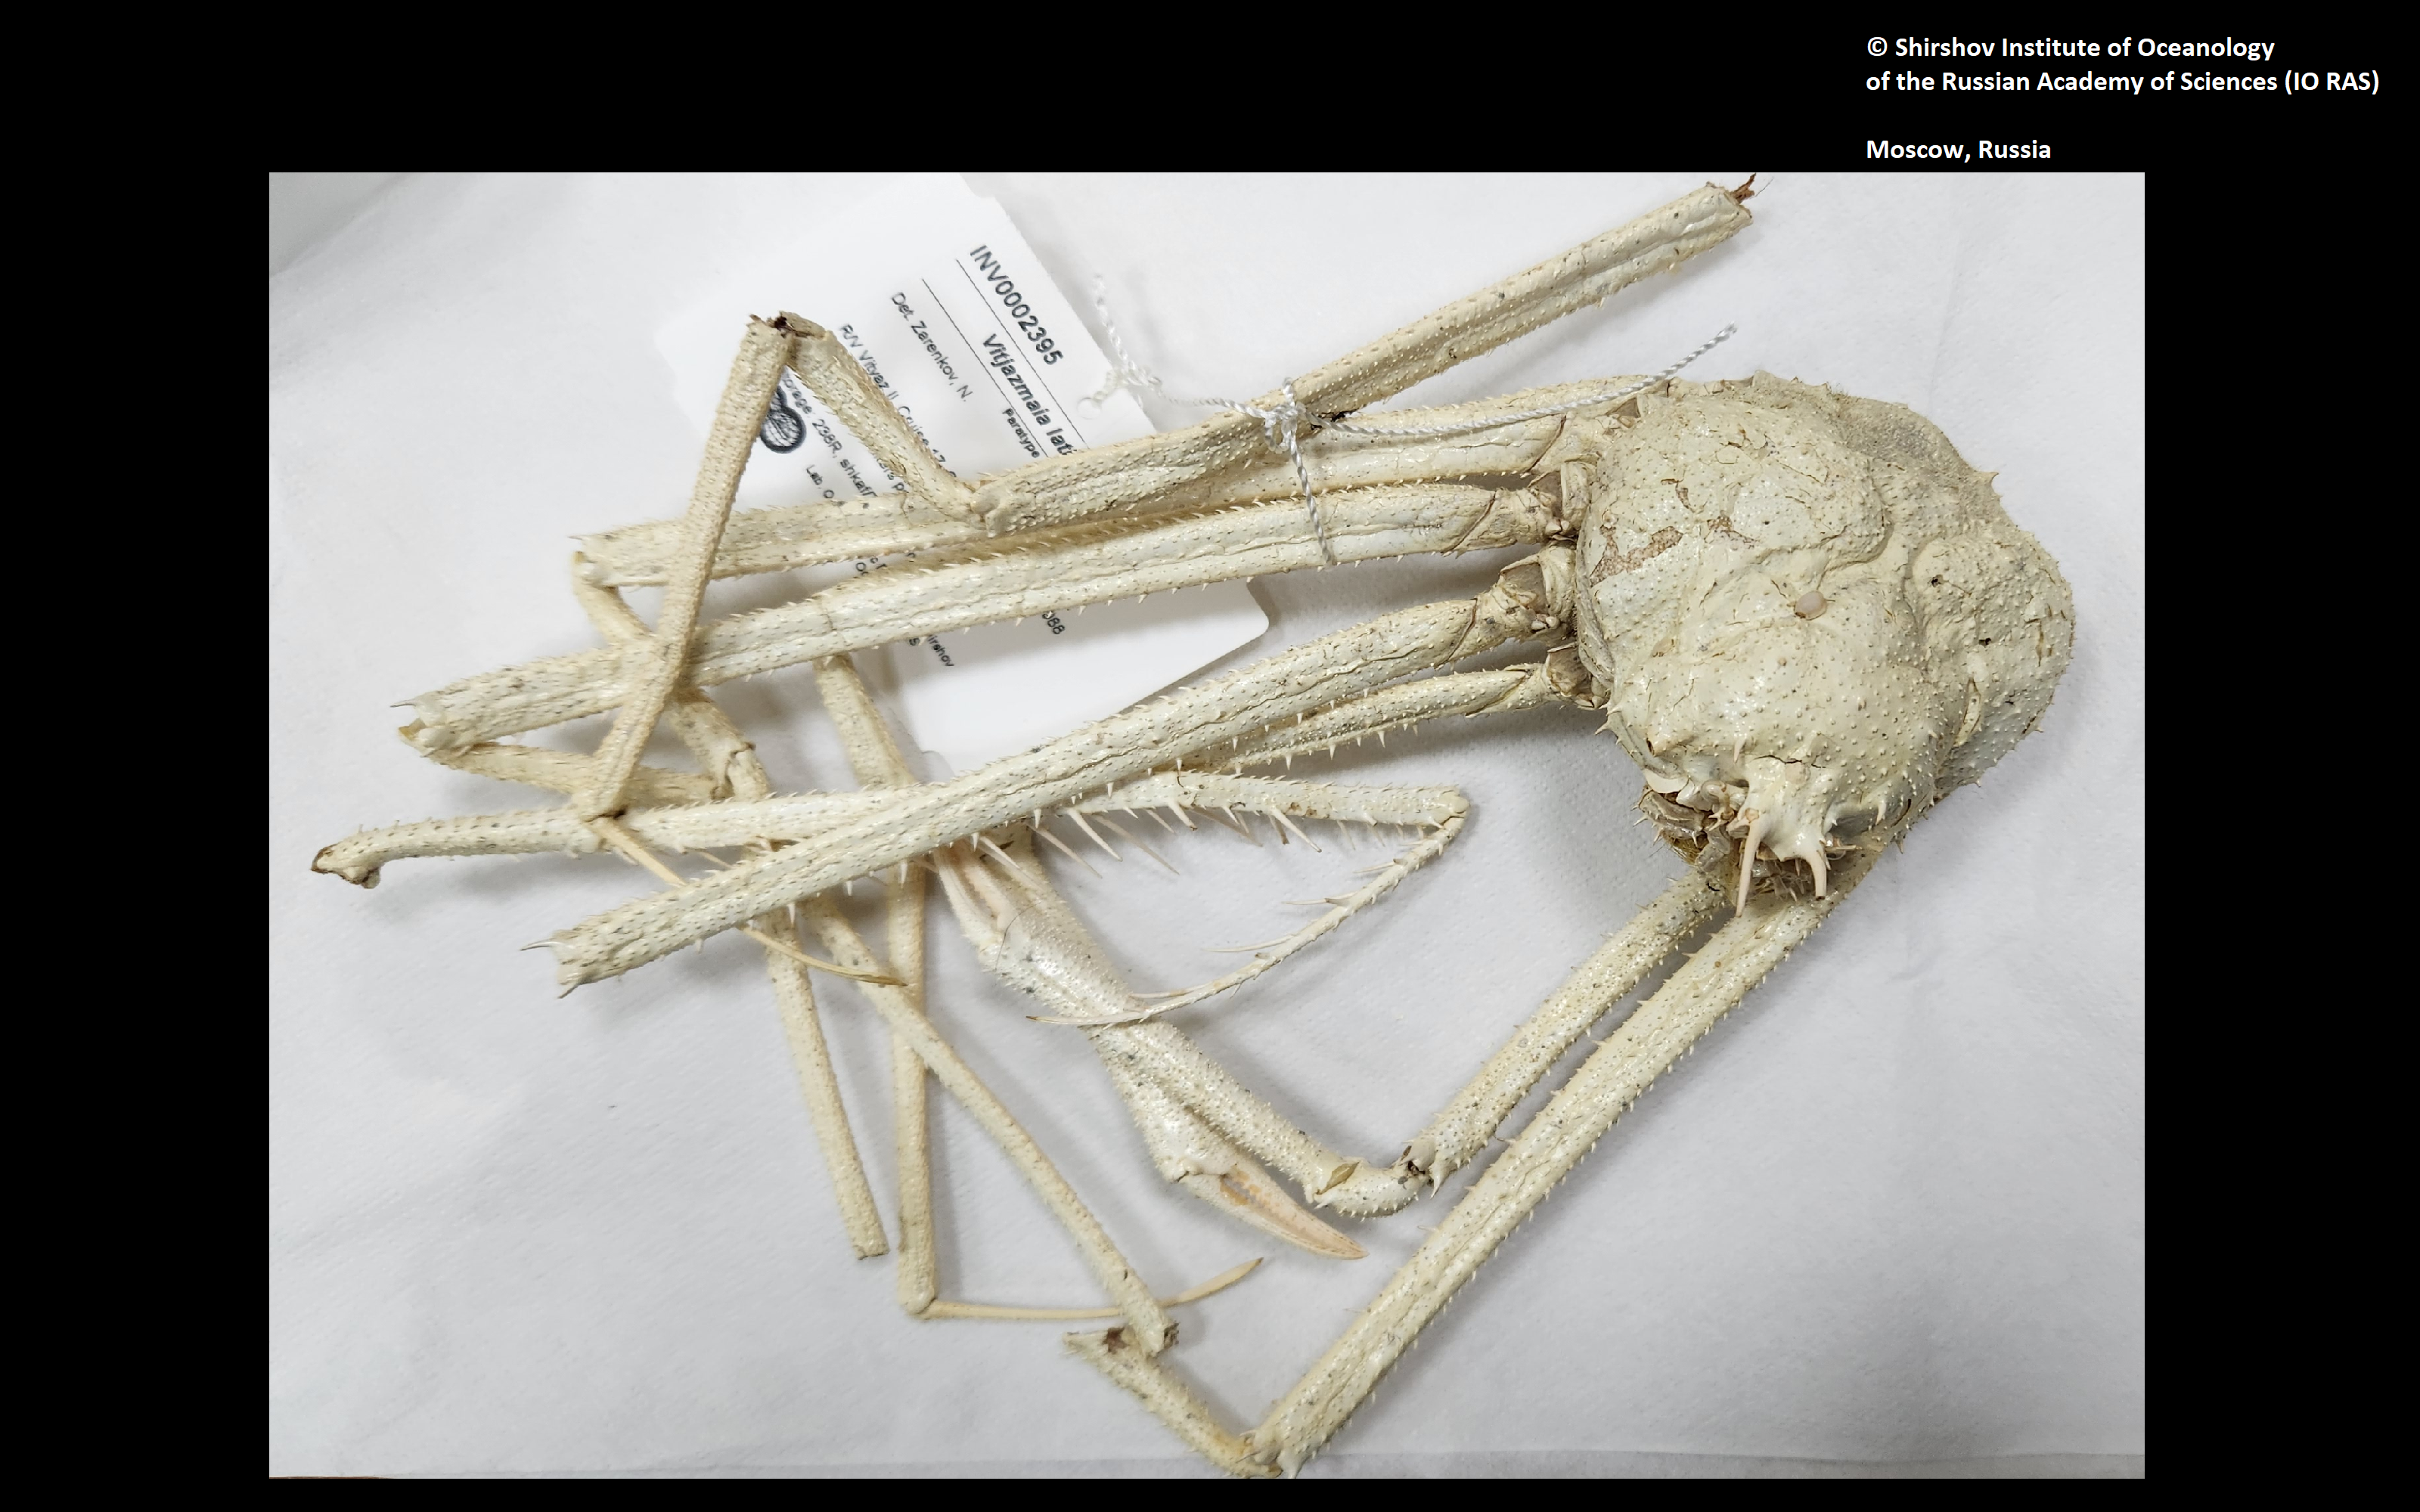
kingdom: Animalia
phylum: Arthropoda
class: Malacostraca
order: Decapoda
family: Oregoniidae
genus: Vitjazmaia
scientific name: Vitjazmaia latidactyla
